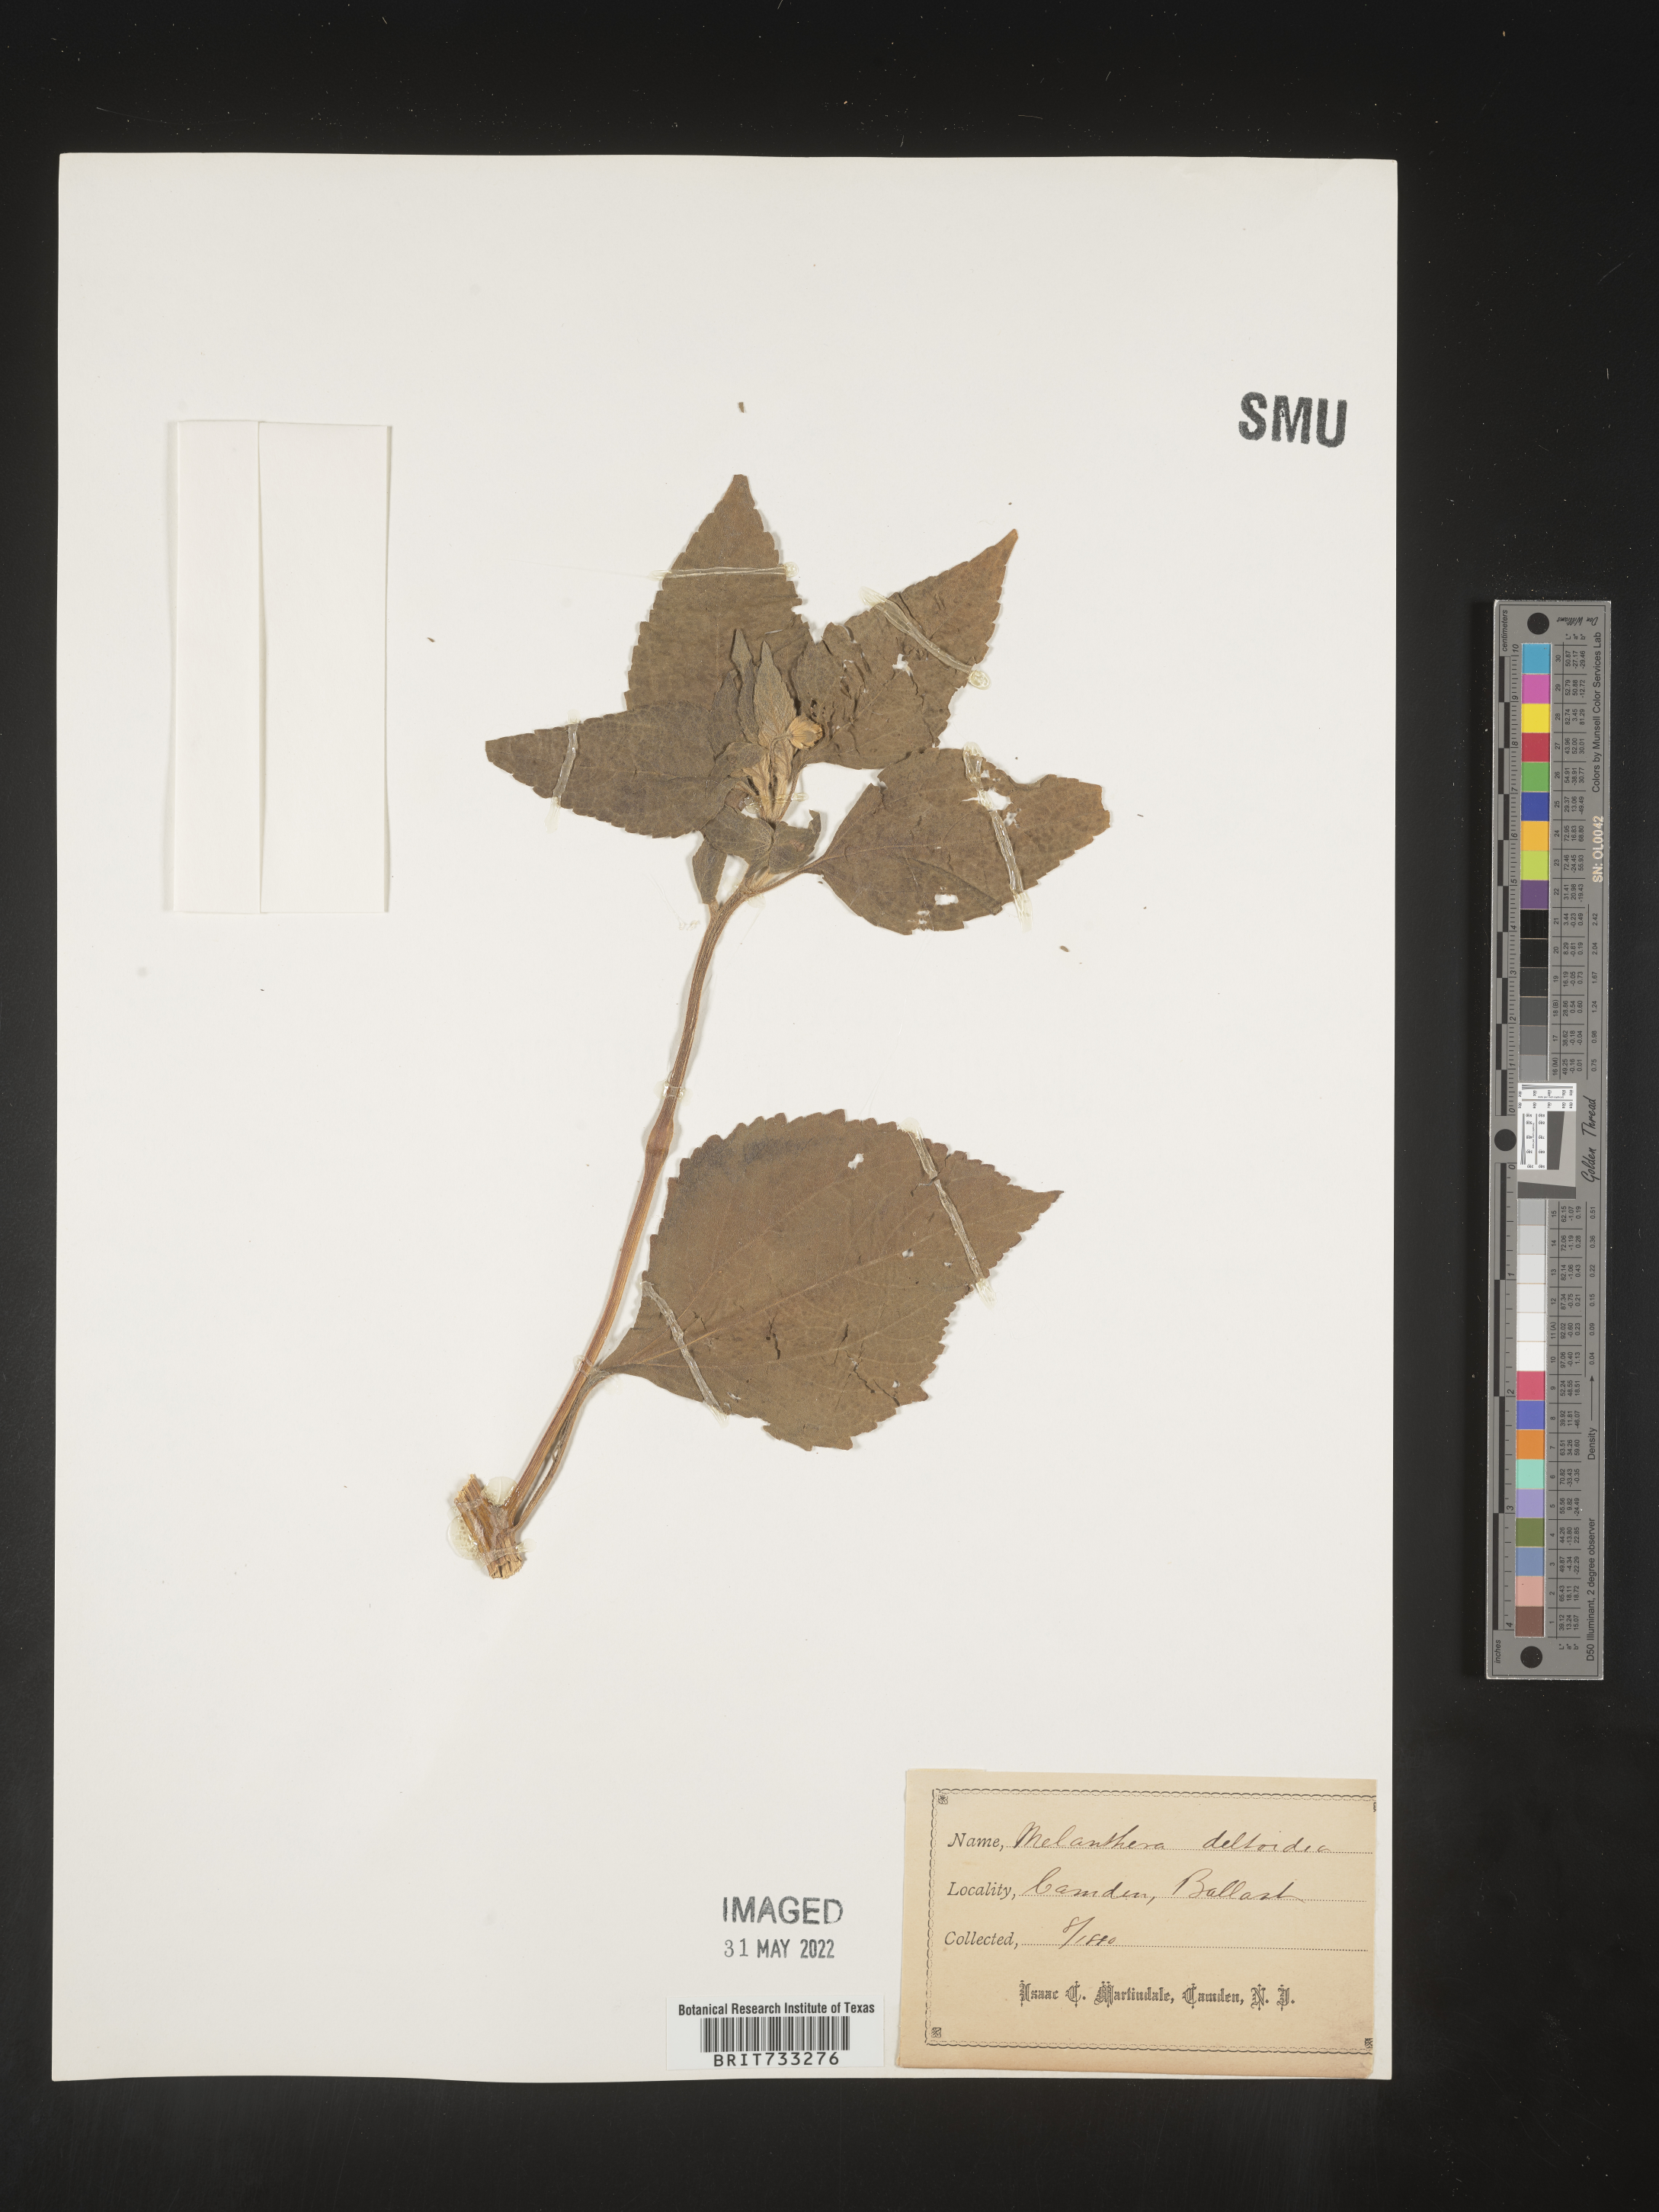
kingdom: Plantae
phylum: Tracheophyta
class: Magnoliopsida
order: Asterales
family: Asteraceae
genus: Melanthera
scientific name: Melanthera nivea
